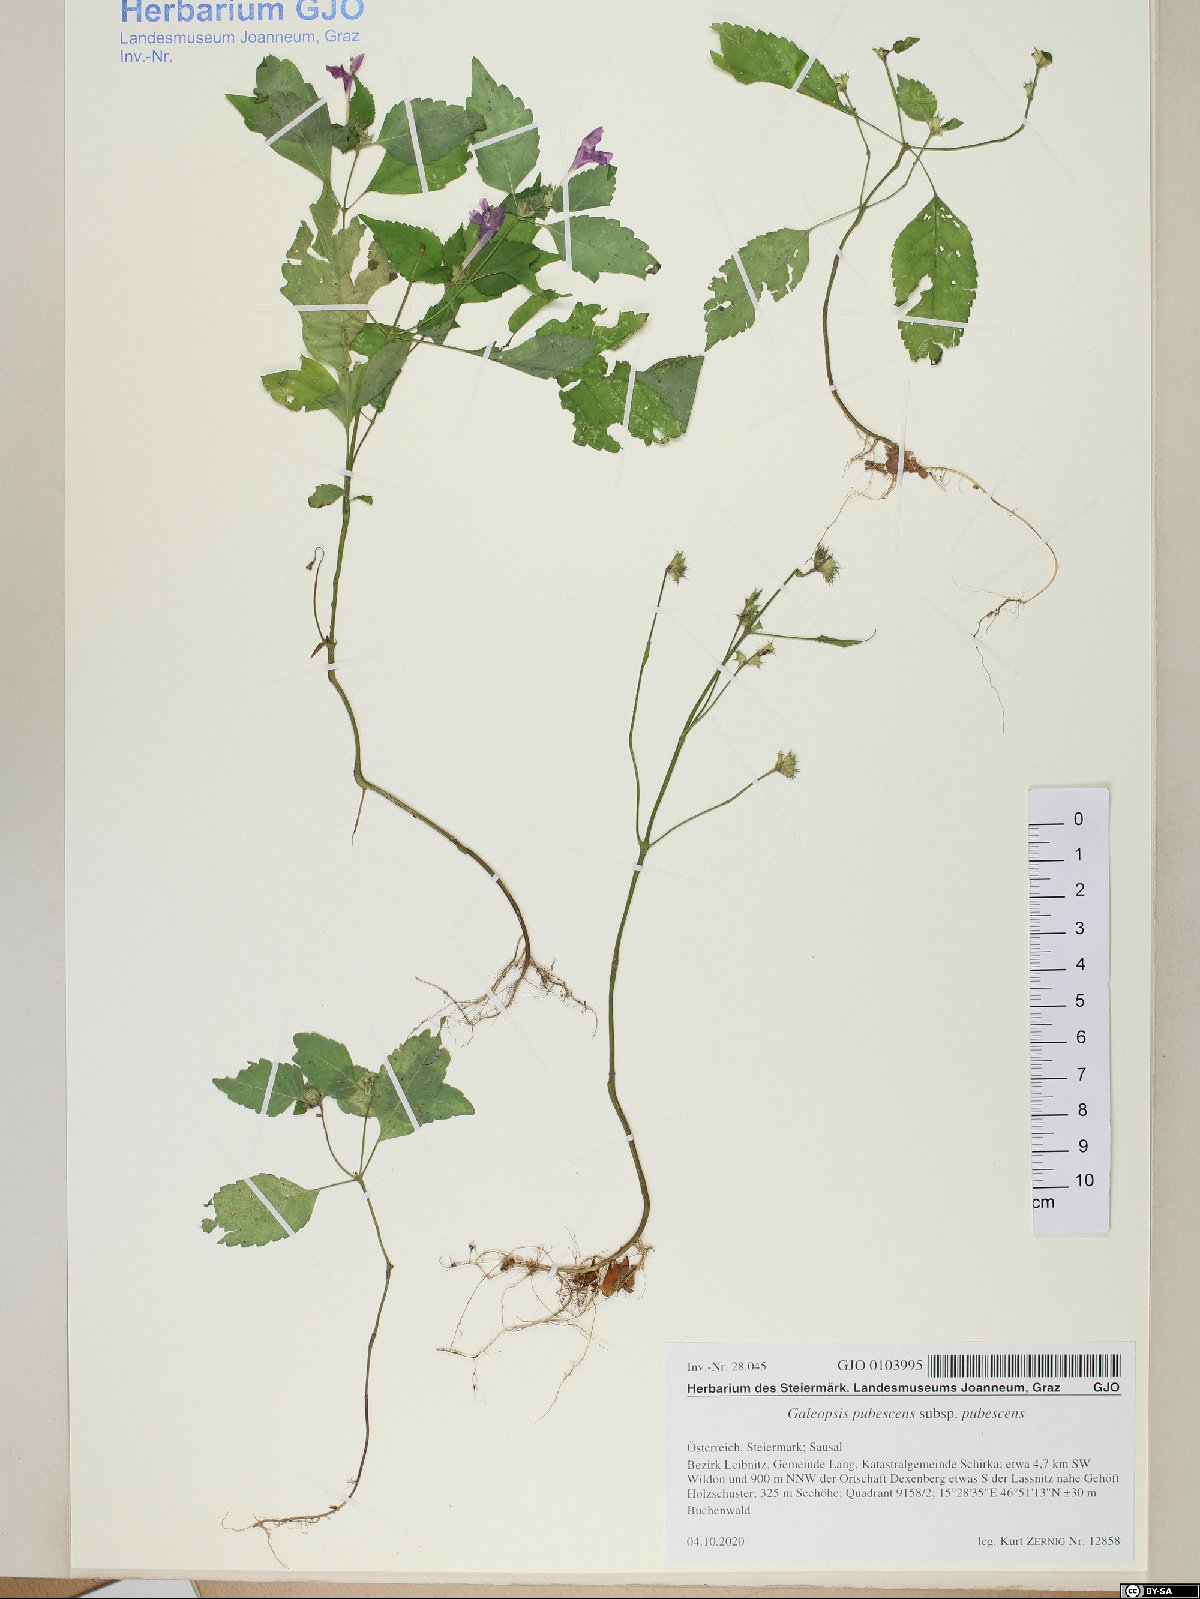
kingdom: Plantae
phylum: Tracheophyta
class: Magnoliopsida
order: Lamiales
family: Lamiaceae
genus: Galeopsis
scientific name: Galeopsis pubescens
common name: Downy hemp-nettle
